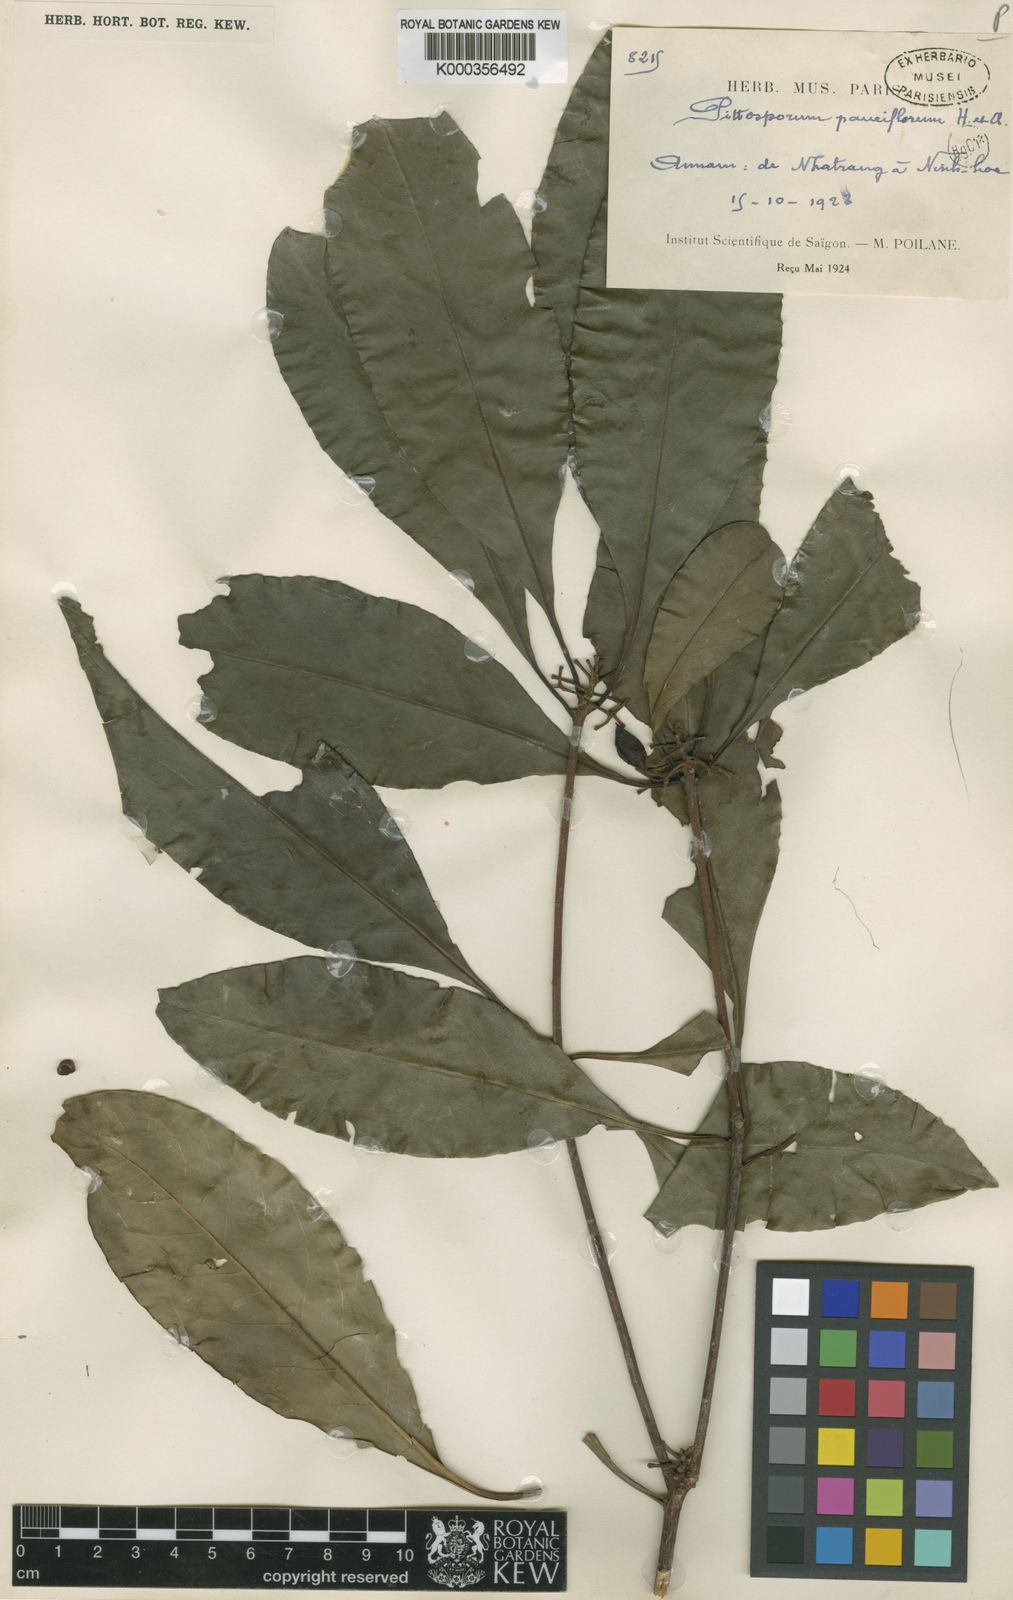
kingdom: Plantae
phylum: Tracheophyta
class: Magnoliopsida
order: Apiales
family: Pittosporaceae
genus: Pittosporum
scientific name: Pittosporum merrillianum
